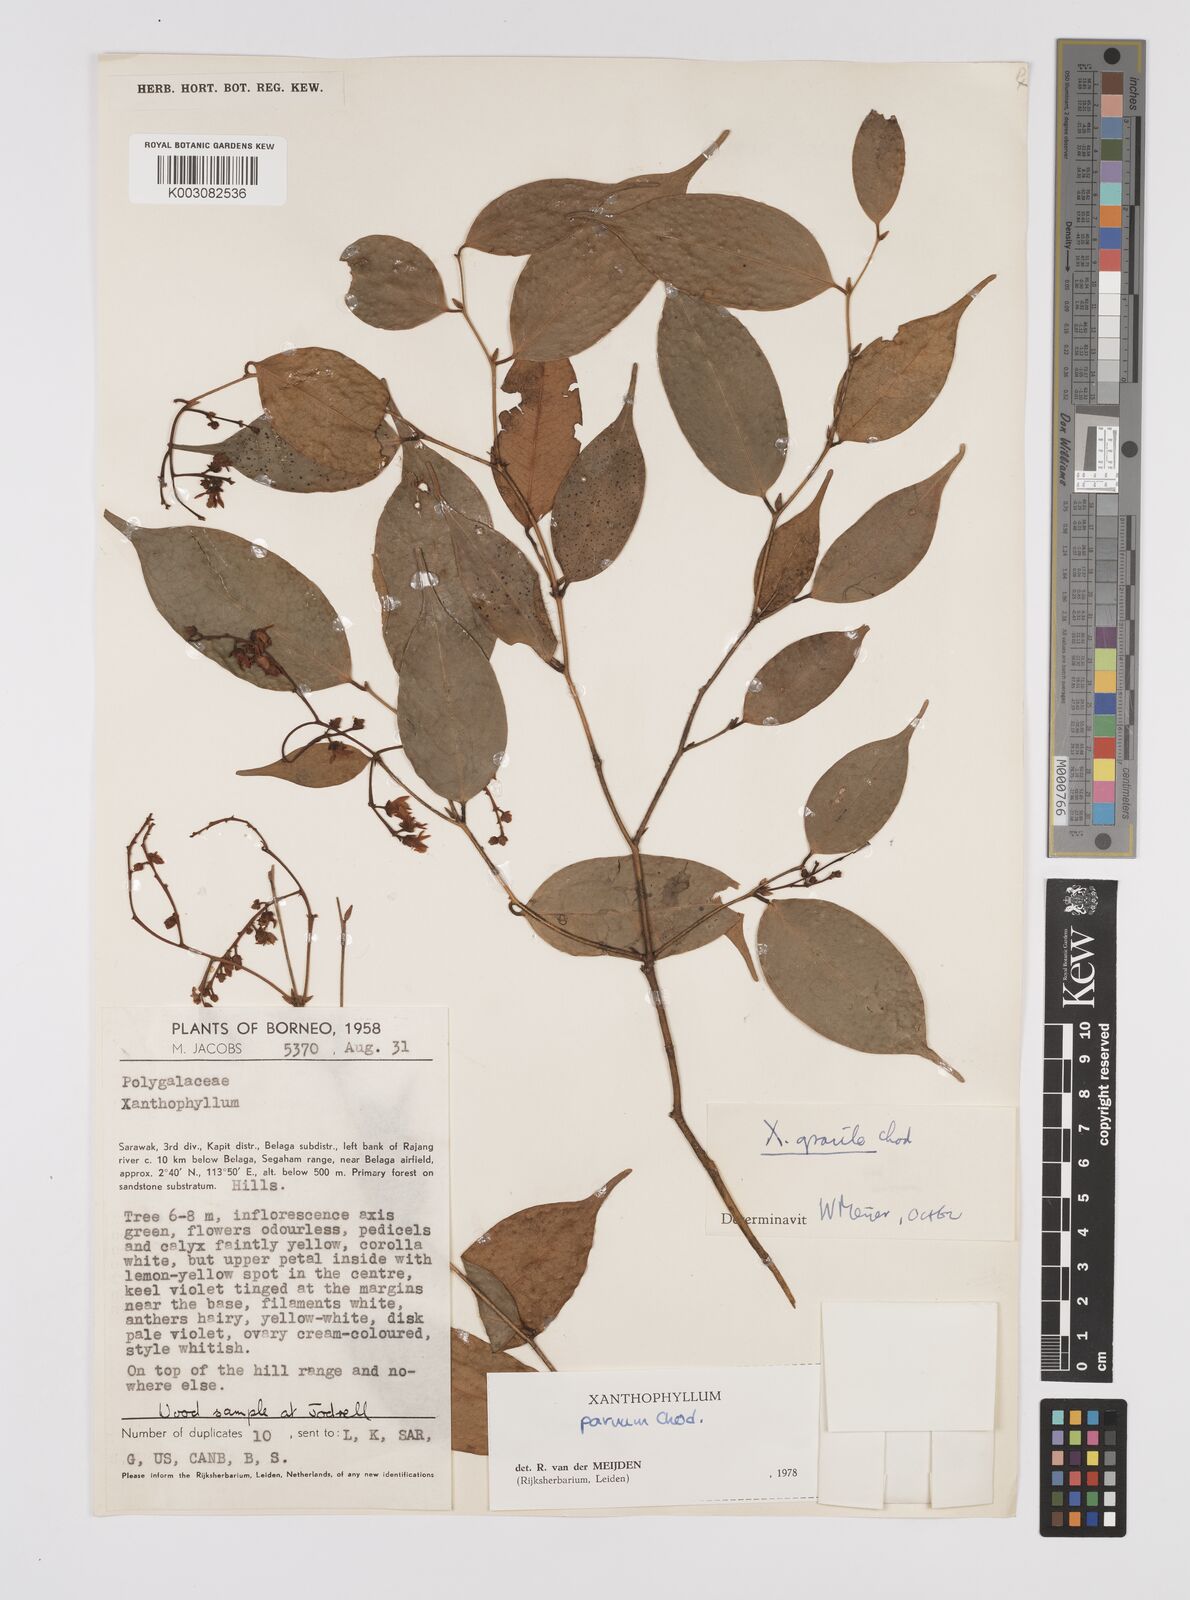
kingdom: Plantae
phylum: Tracheophyta
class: Magnoliopsida
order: Fabales
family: Polygalaceae
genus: Xanthophyllum
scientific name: Xanthophyllum griffithii
